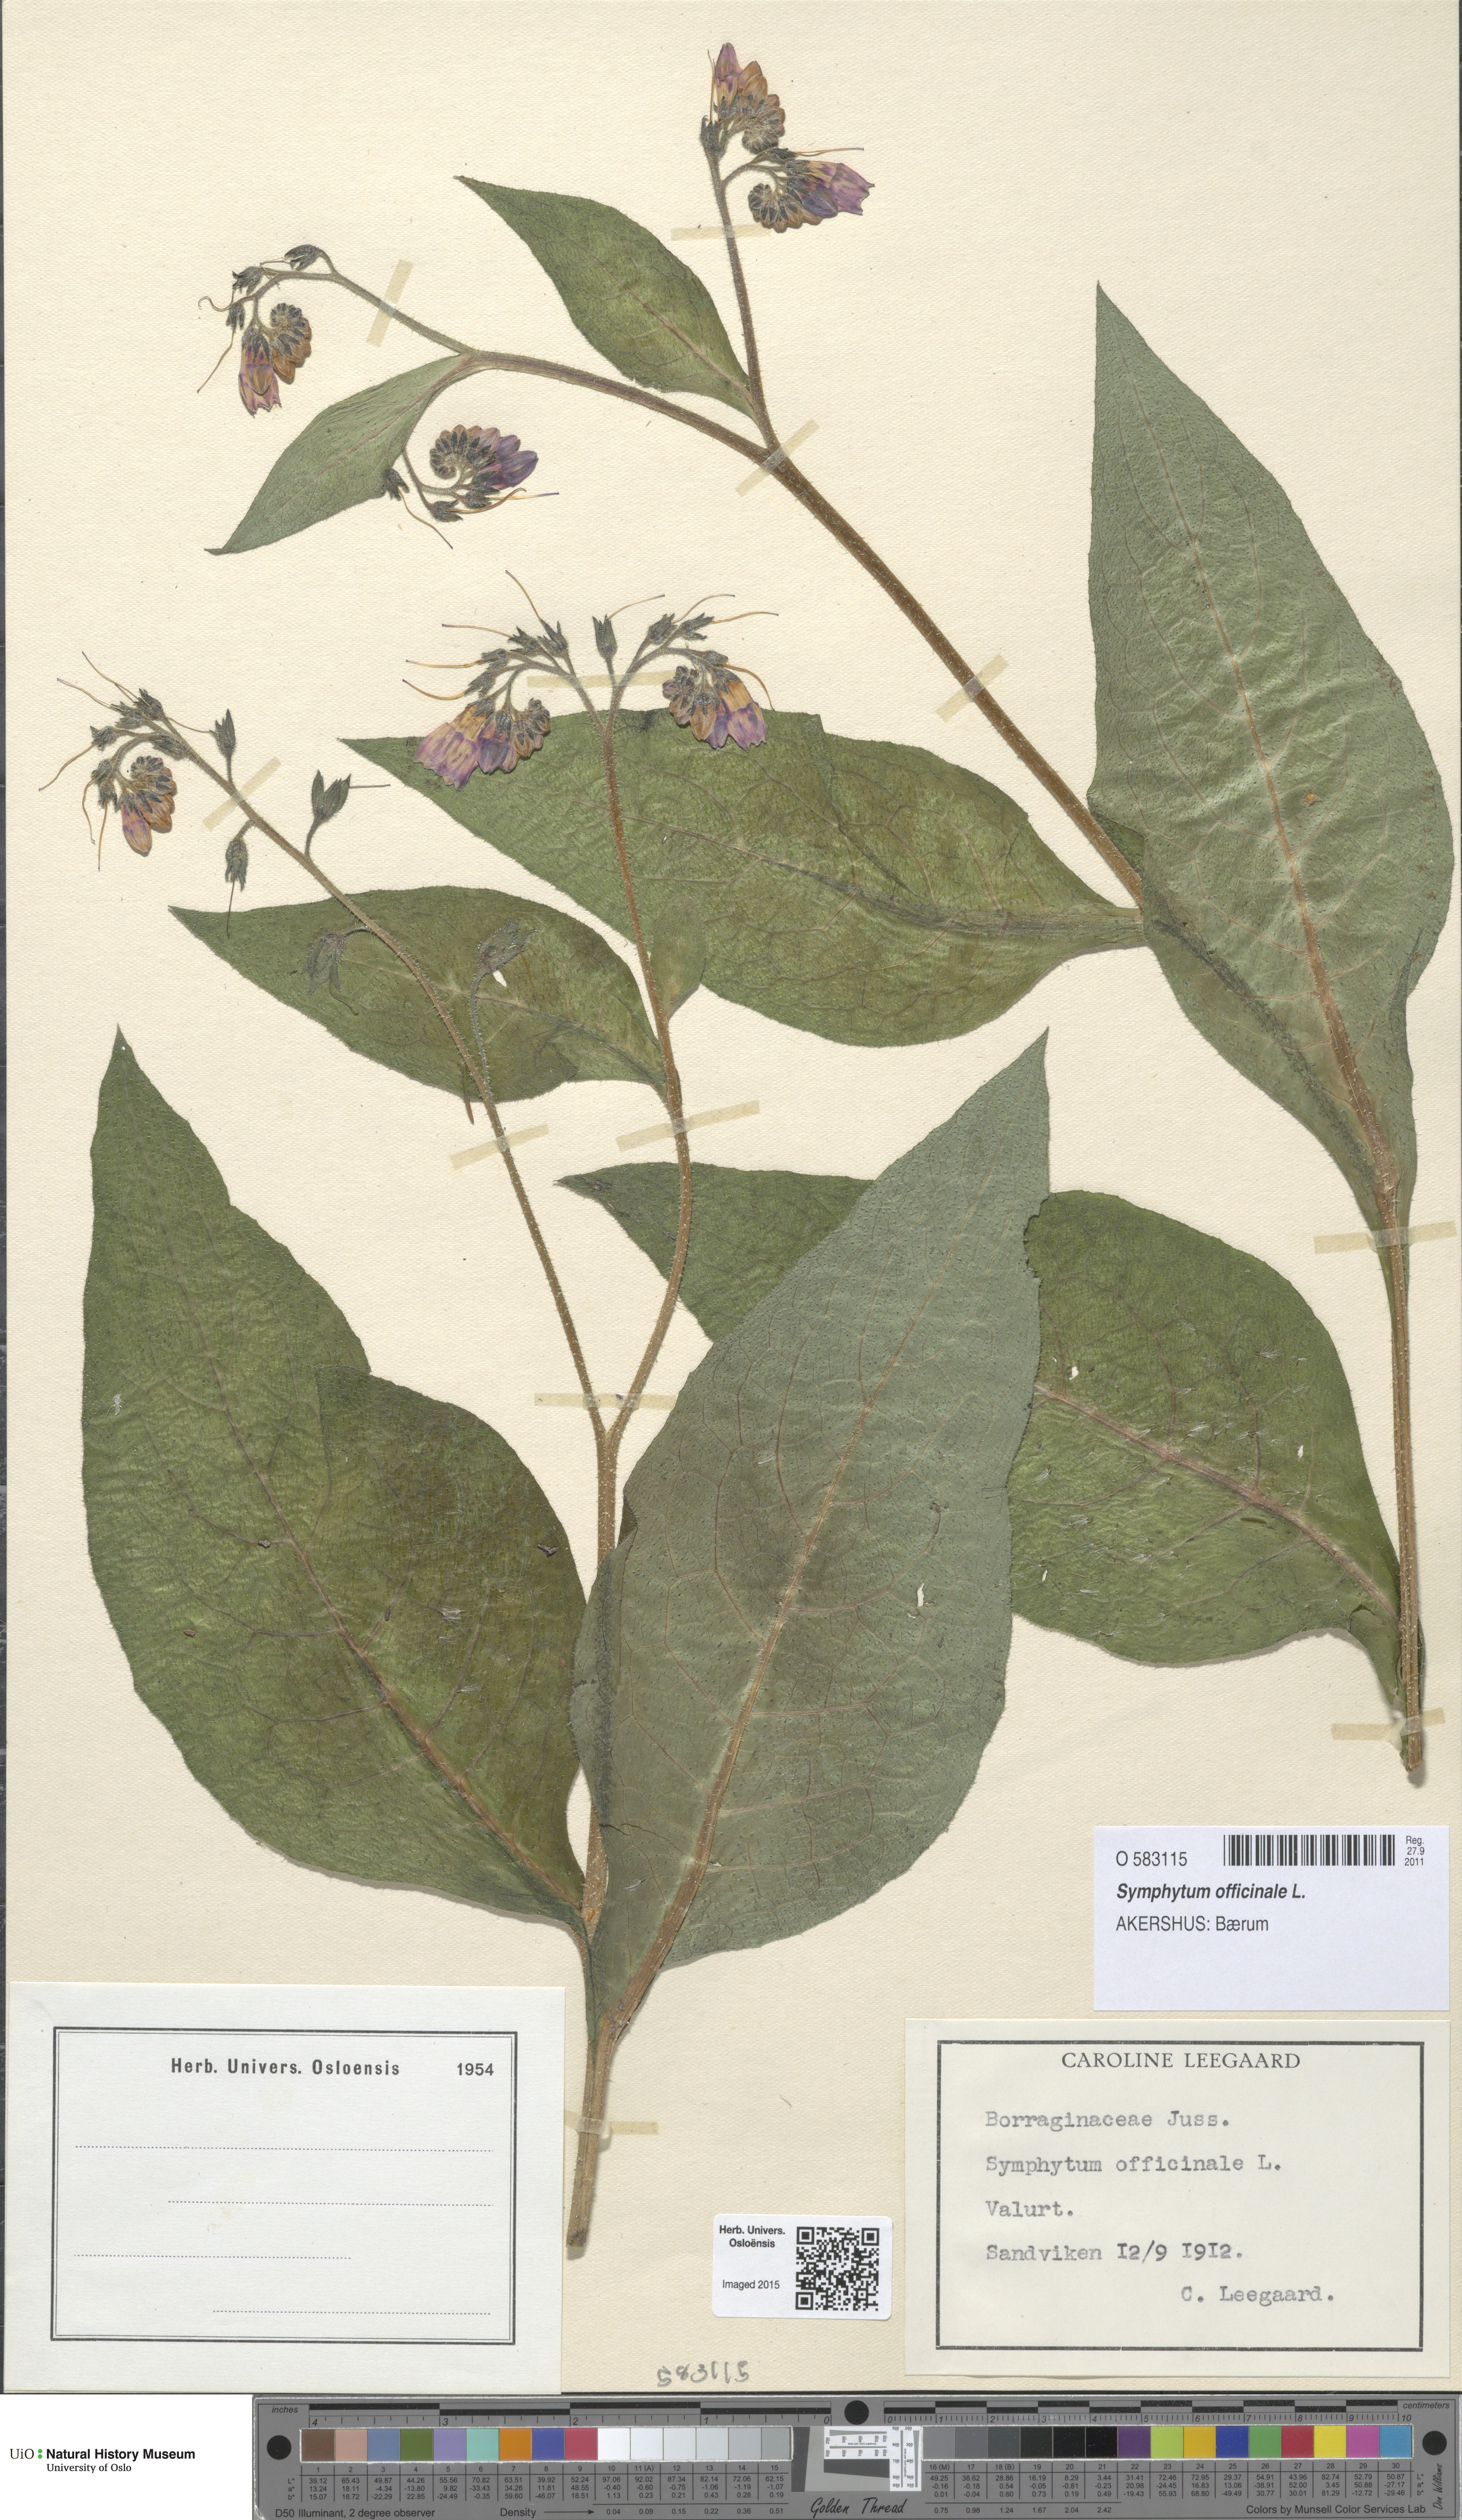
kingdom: Plantae
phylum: Tracheophyta
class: Magnoliopsida
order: Boraginales
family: Boraginaceae
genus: Symphytum
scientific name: Symphytum asperum
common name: Prickly comfrey
